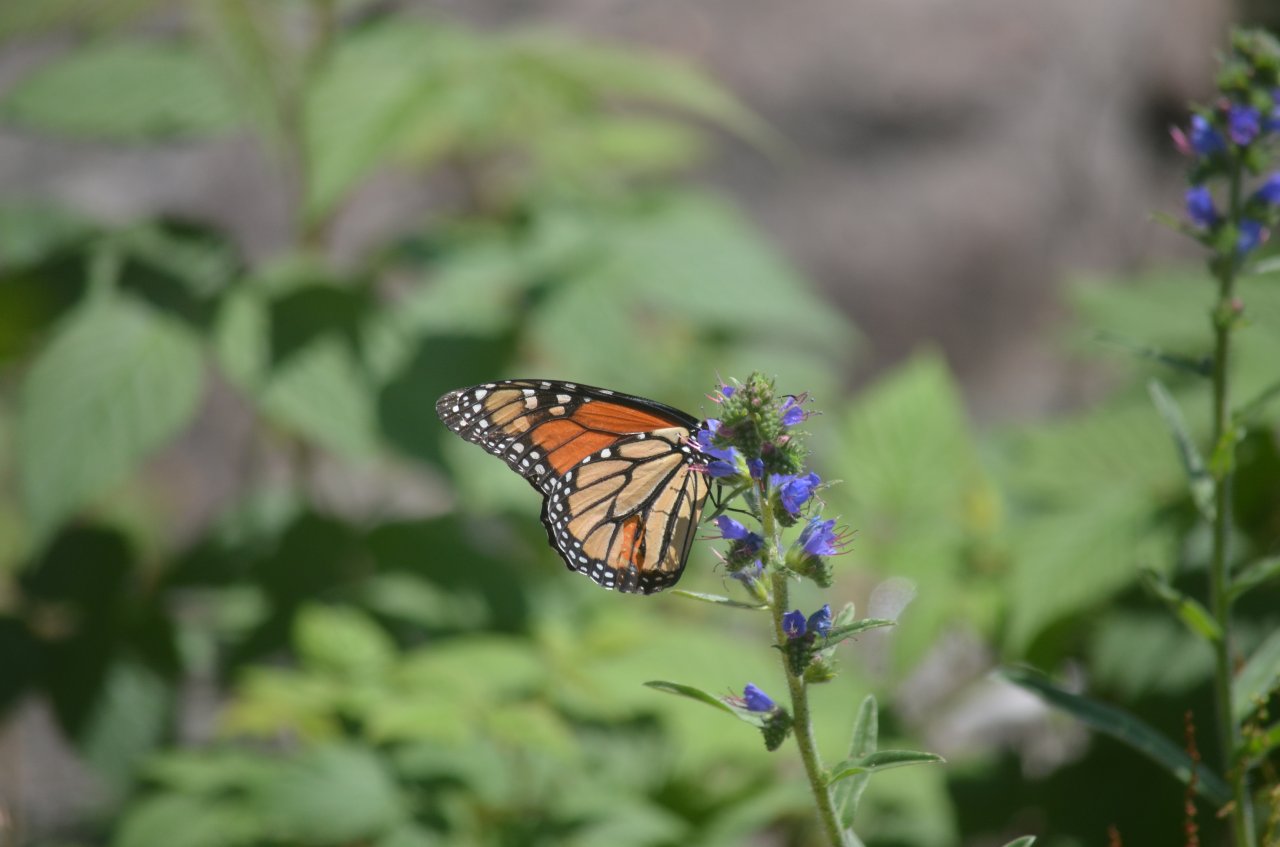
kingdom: Animalia
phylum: Arthropoda
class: Insecta
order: Lepidoptera
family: Nymphalidae
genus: Danaus
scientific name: Danaus plexippus
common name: Monarch
